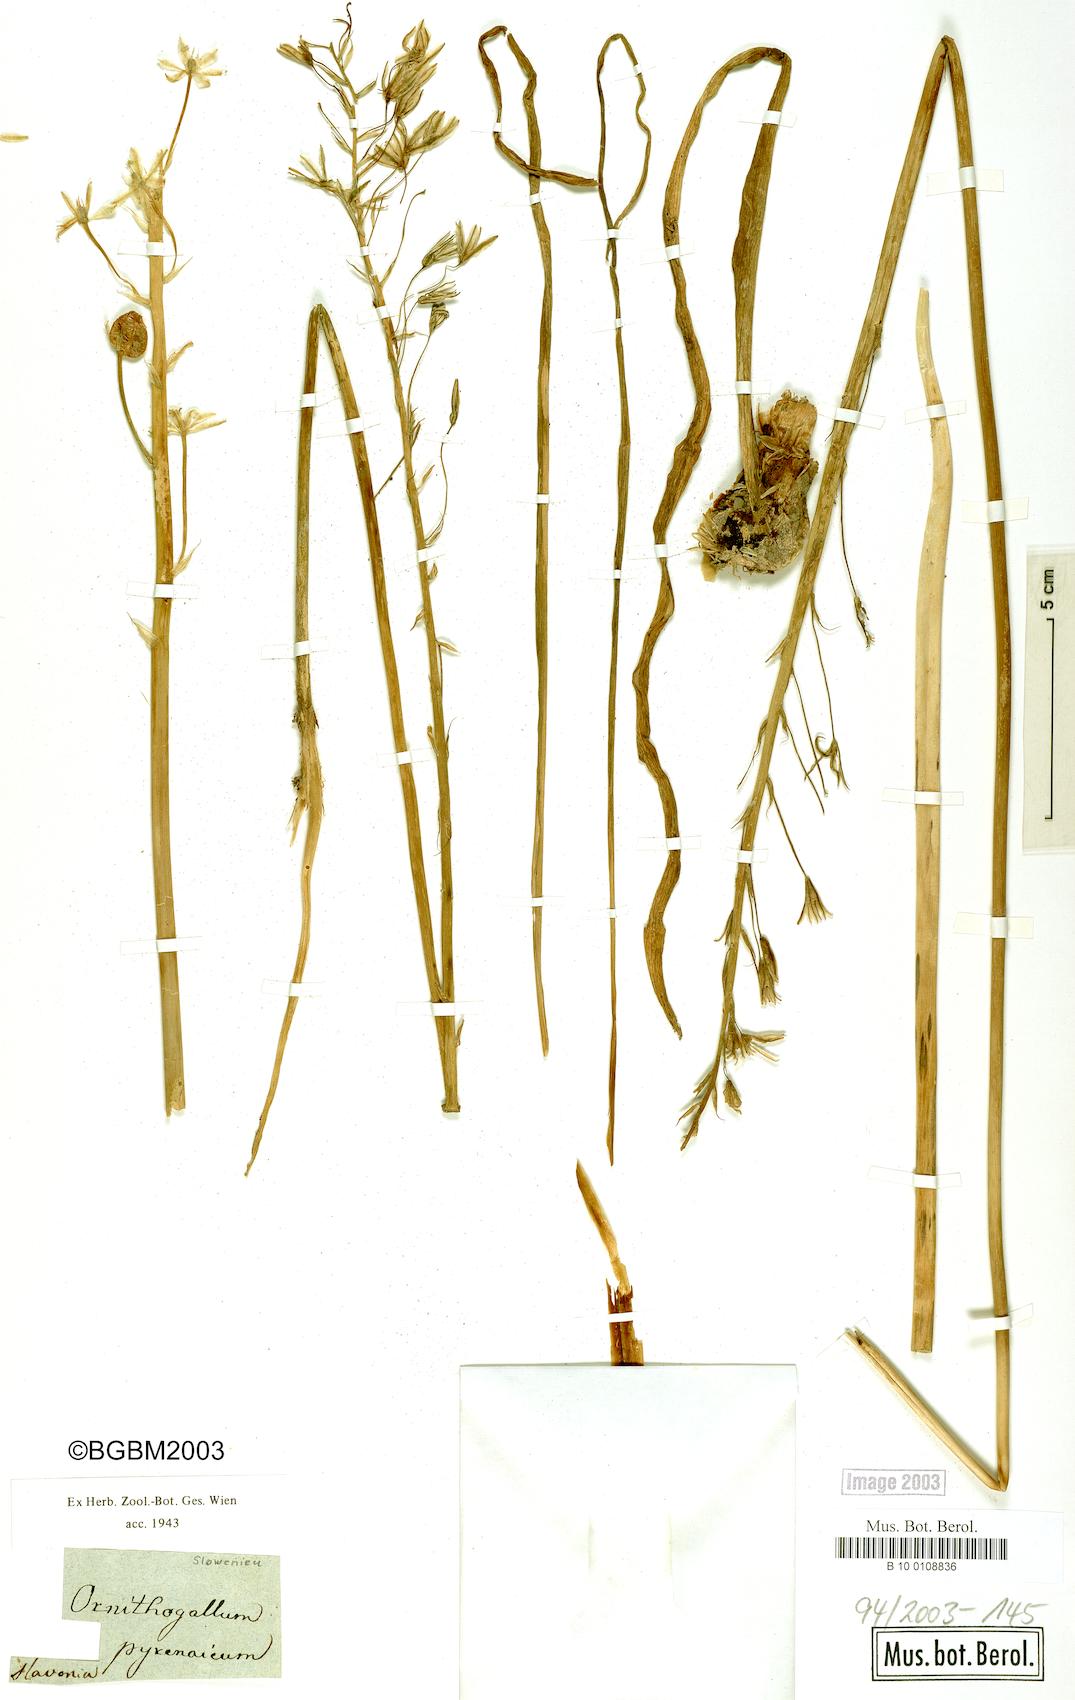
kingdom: Plantae
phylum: Tracheophyta
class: Liliopsida
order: Asparagales
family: Asparagaceae
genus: Ornithogalum
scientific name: Ornithogalum pyrenaicum
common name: Spiked star-of-bethlehem
